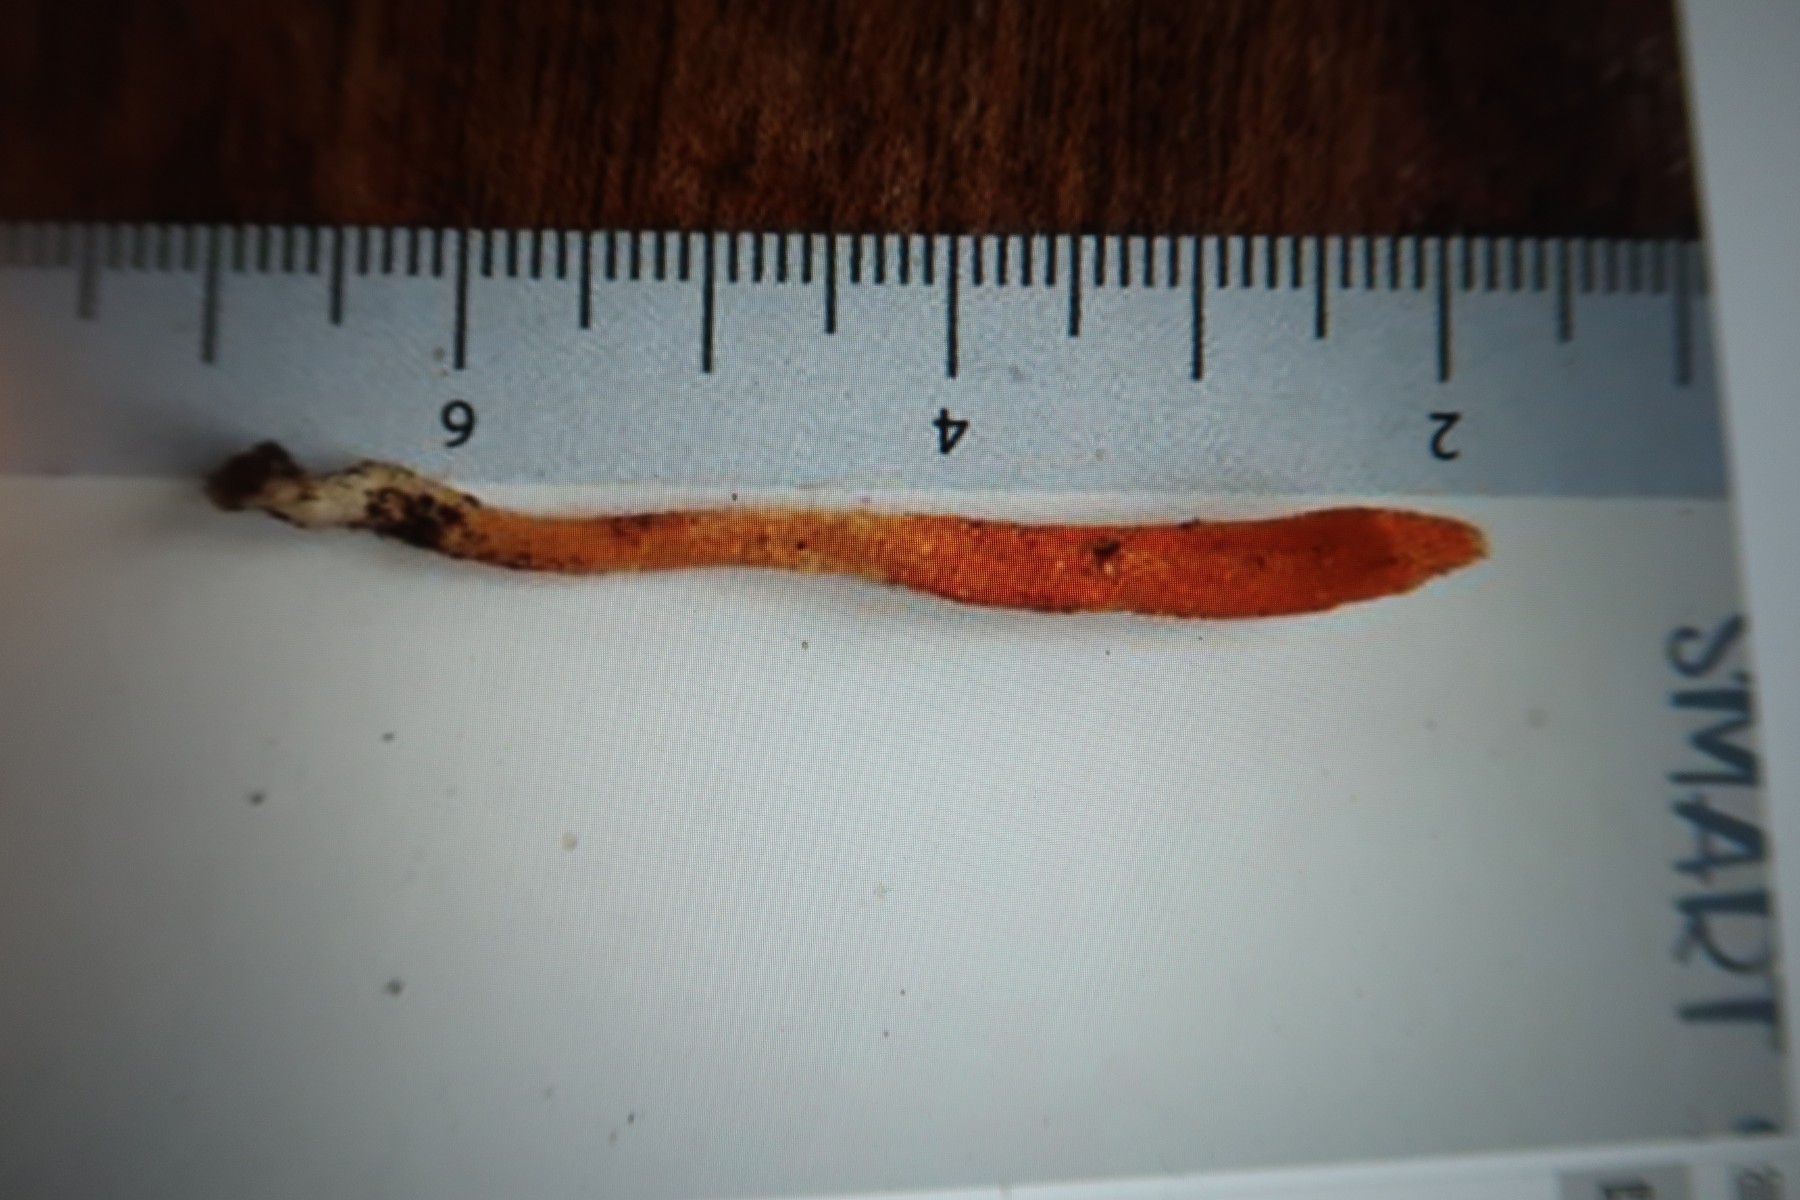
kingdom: Fungi
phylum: Ascomycota
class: Sordariomycetes
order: Hypocreales
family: Cordycipitaceae
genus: Cordyceps
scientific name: Cordyceps militaris
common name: puppe-snyltekølle
